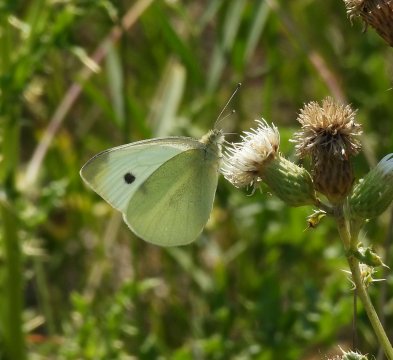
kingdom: Animalia
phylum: Arthropoda
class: Insecta
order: Lepidoptera
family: Pieridae
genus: Pieris
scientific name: Pieris rapae
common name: Cabbage White
